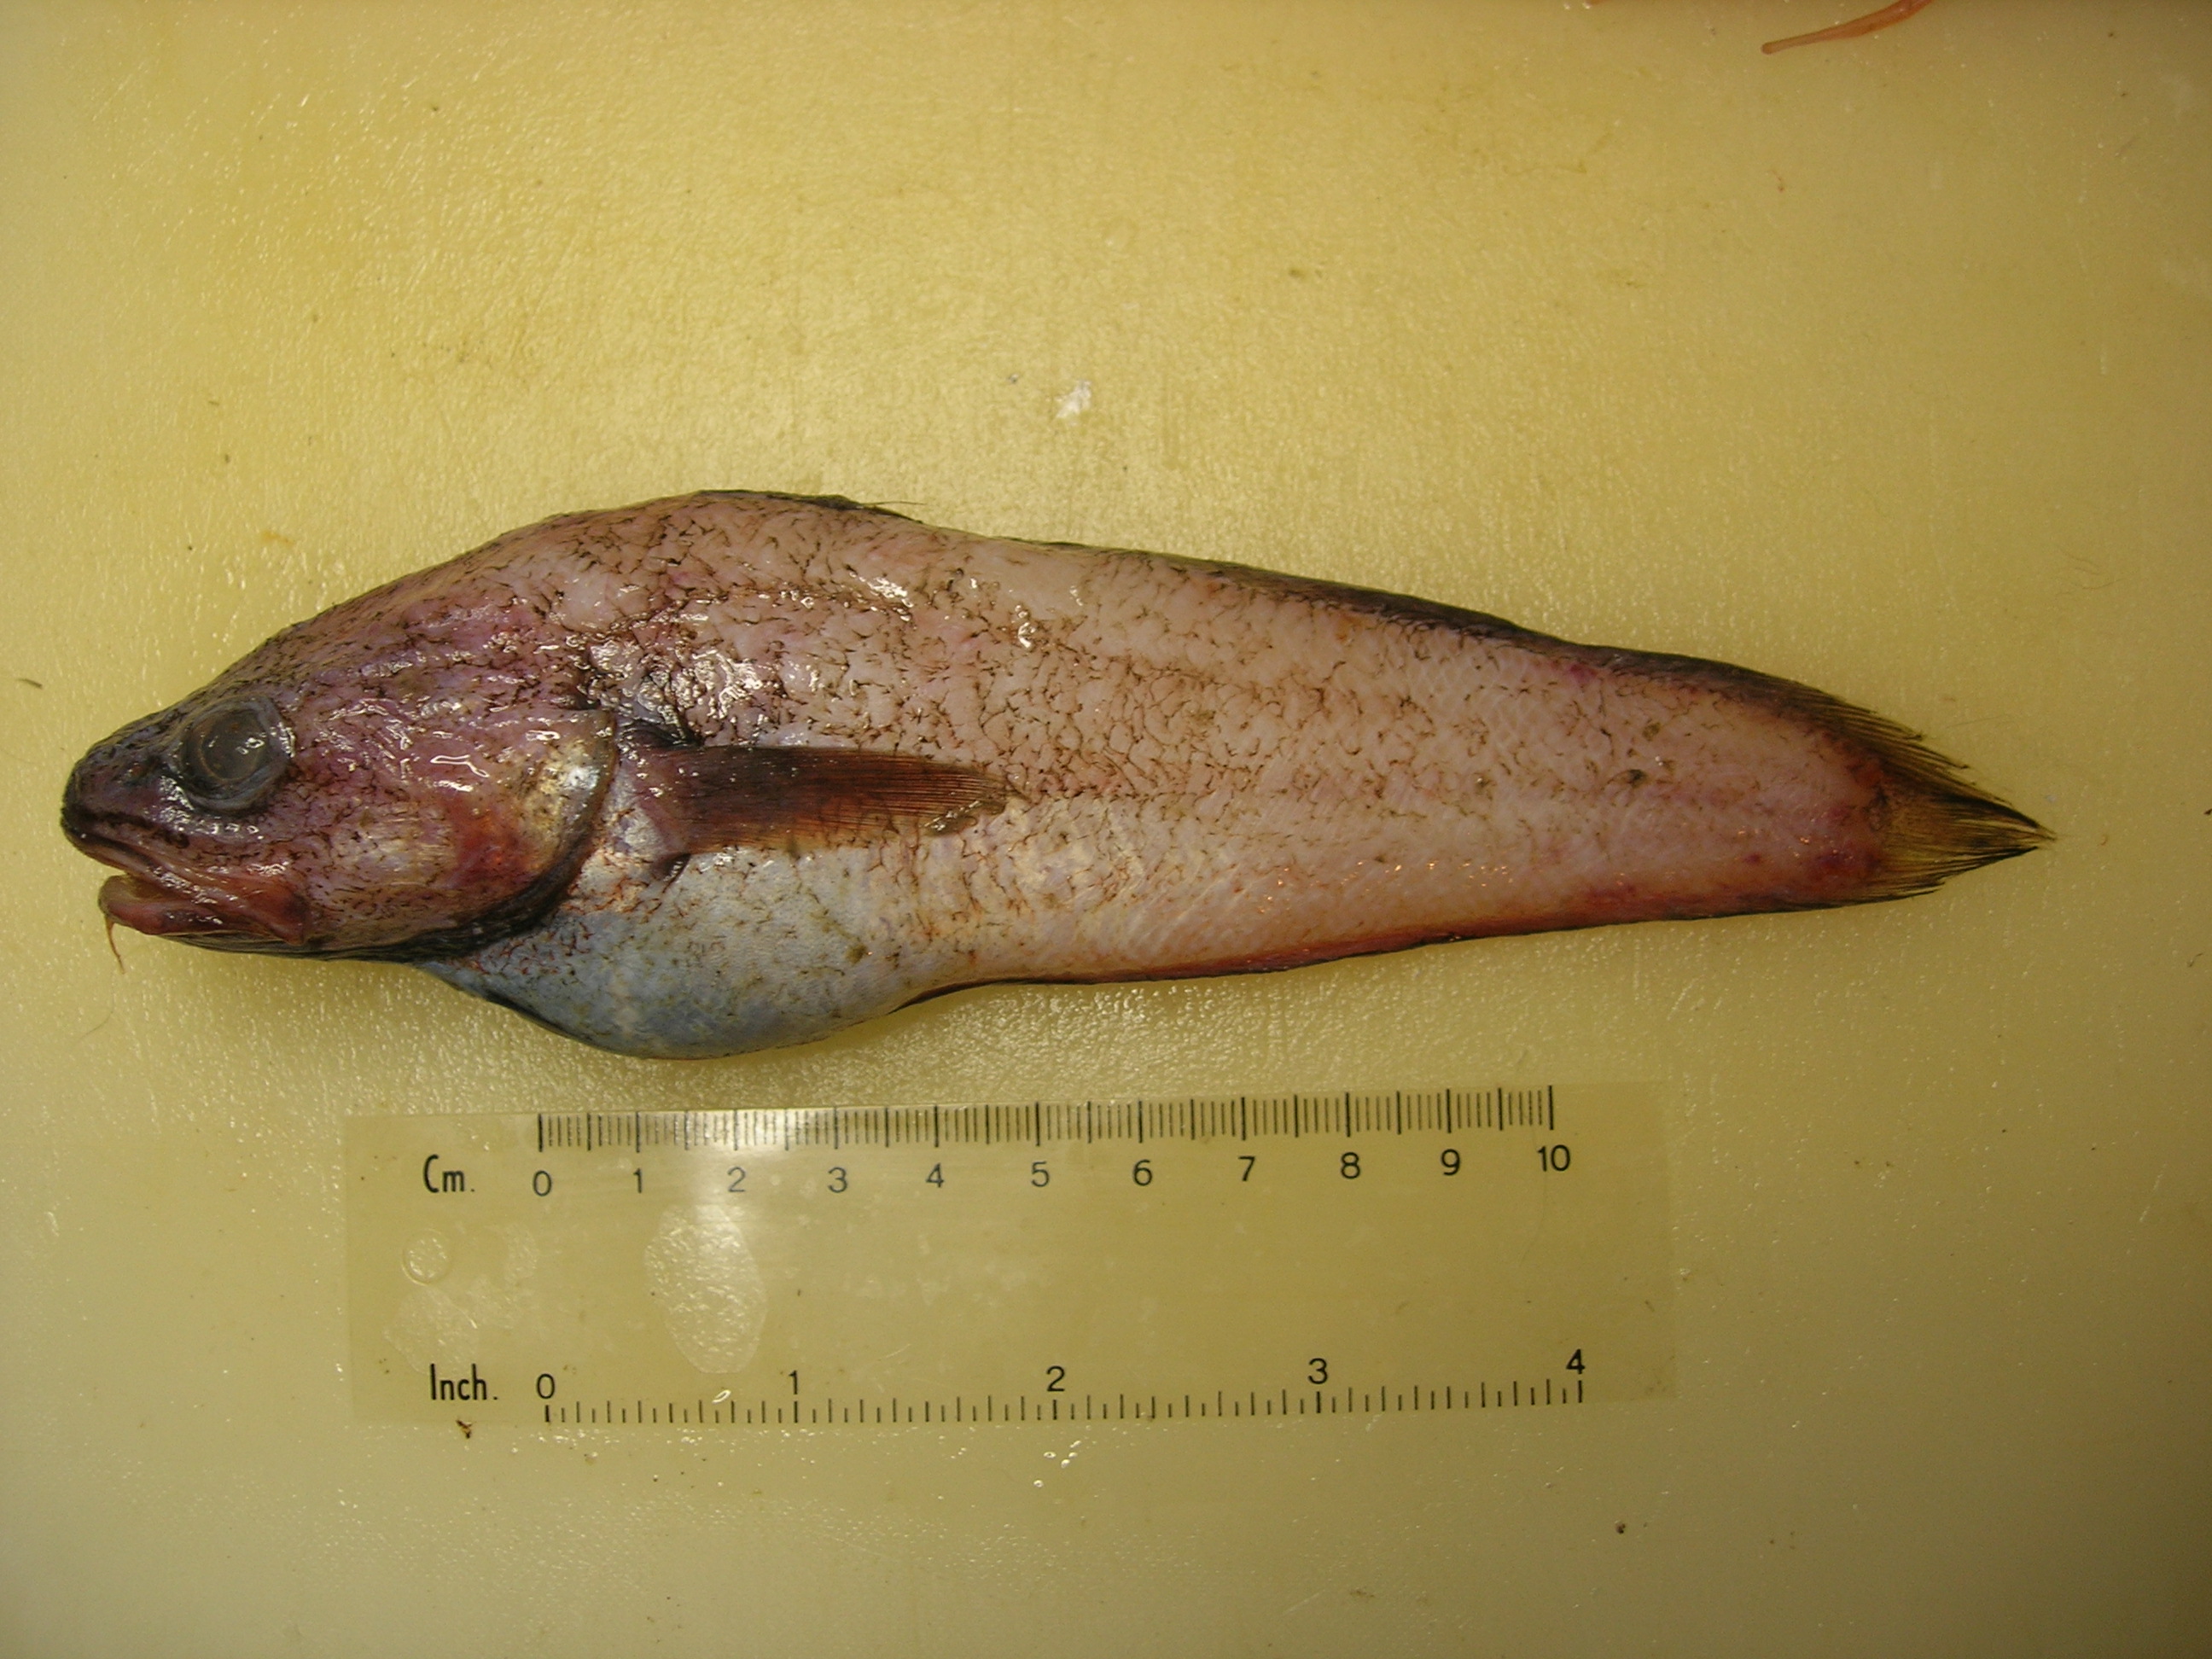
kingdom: Animalia
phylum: Chordata
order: Gadiformes
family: Moridae
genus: Physiculus
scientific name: Physiculus natalensis
